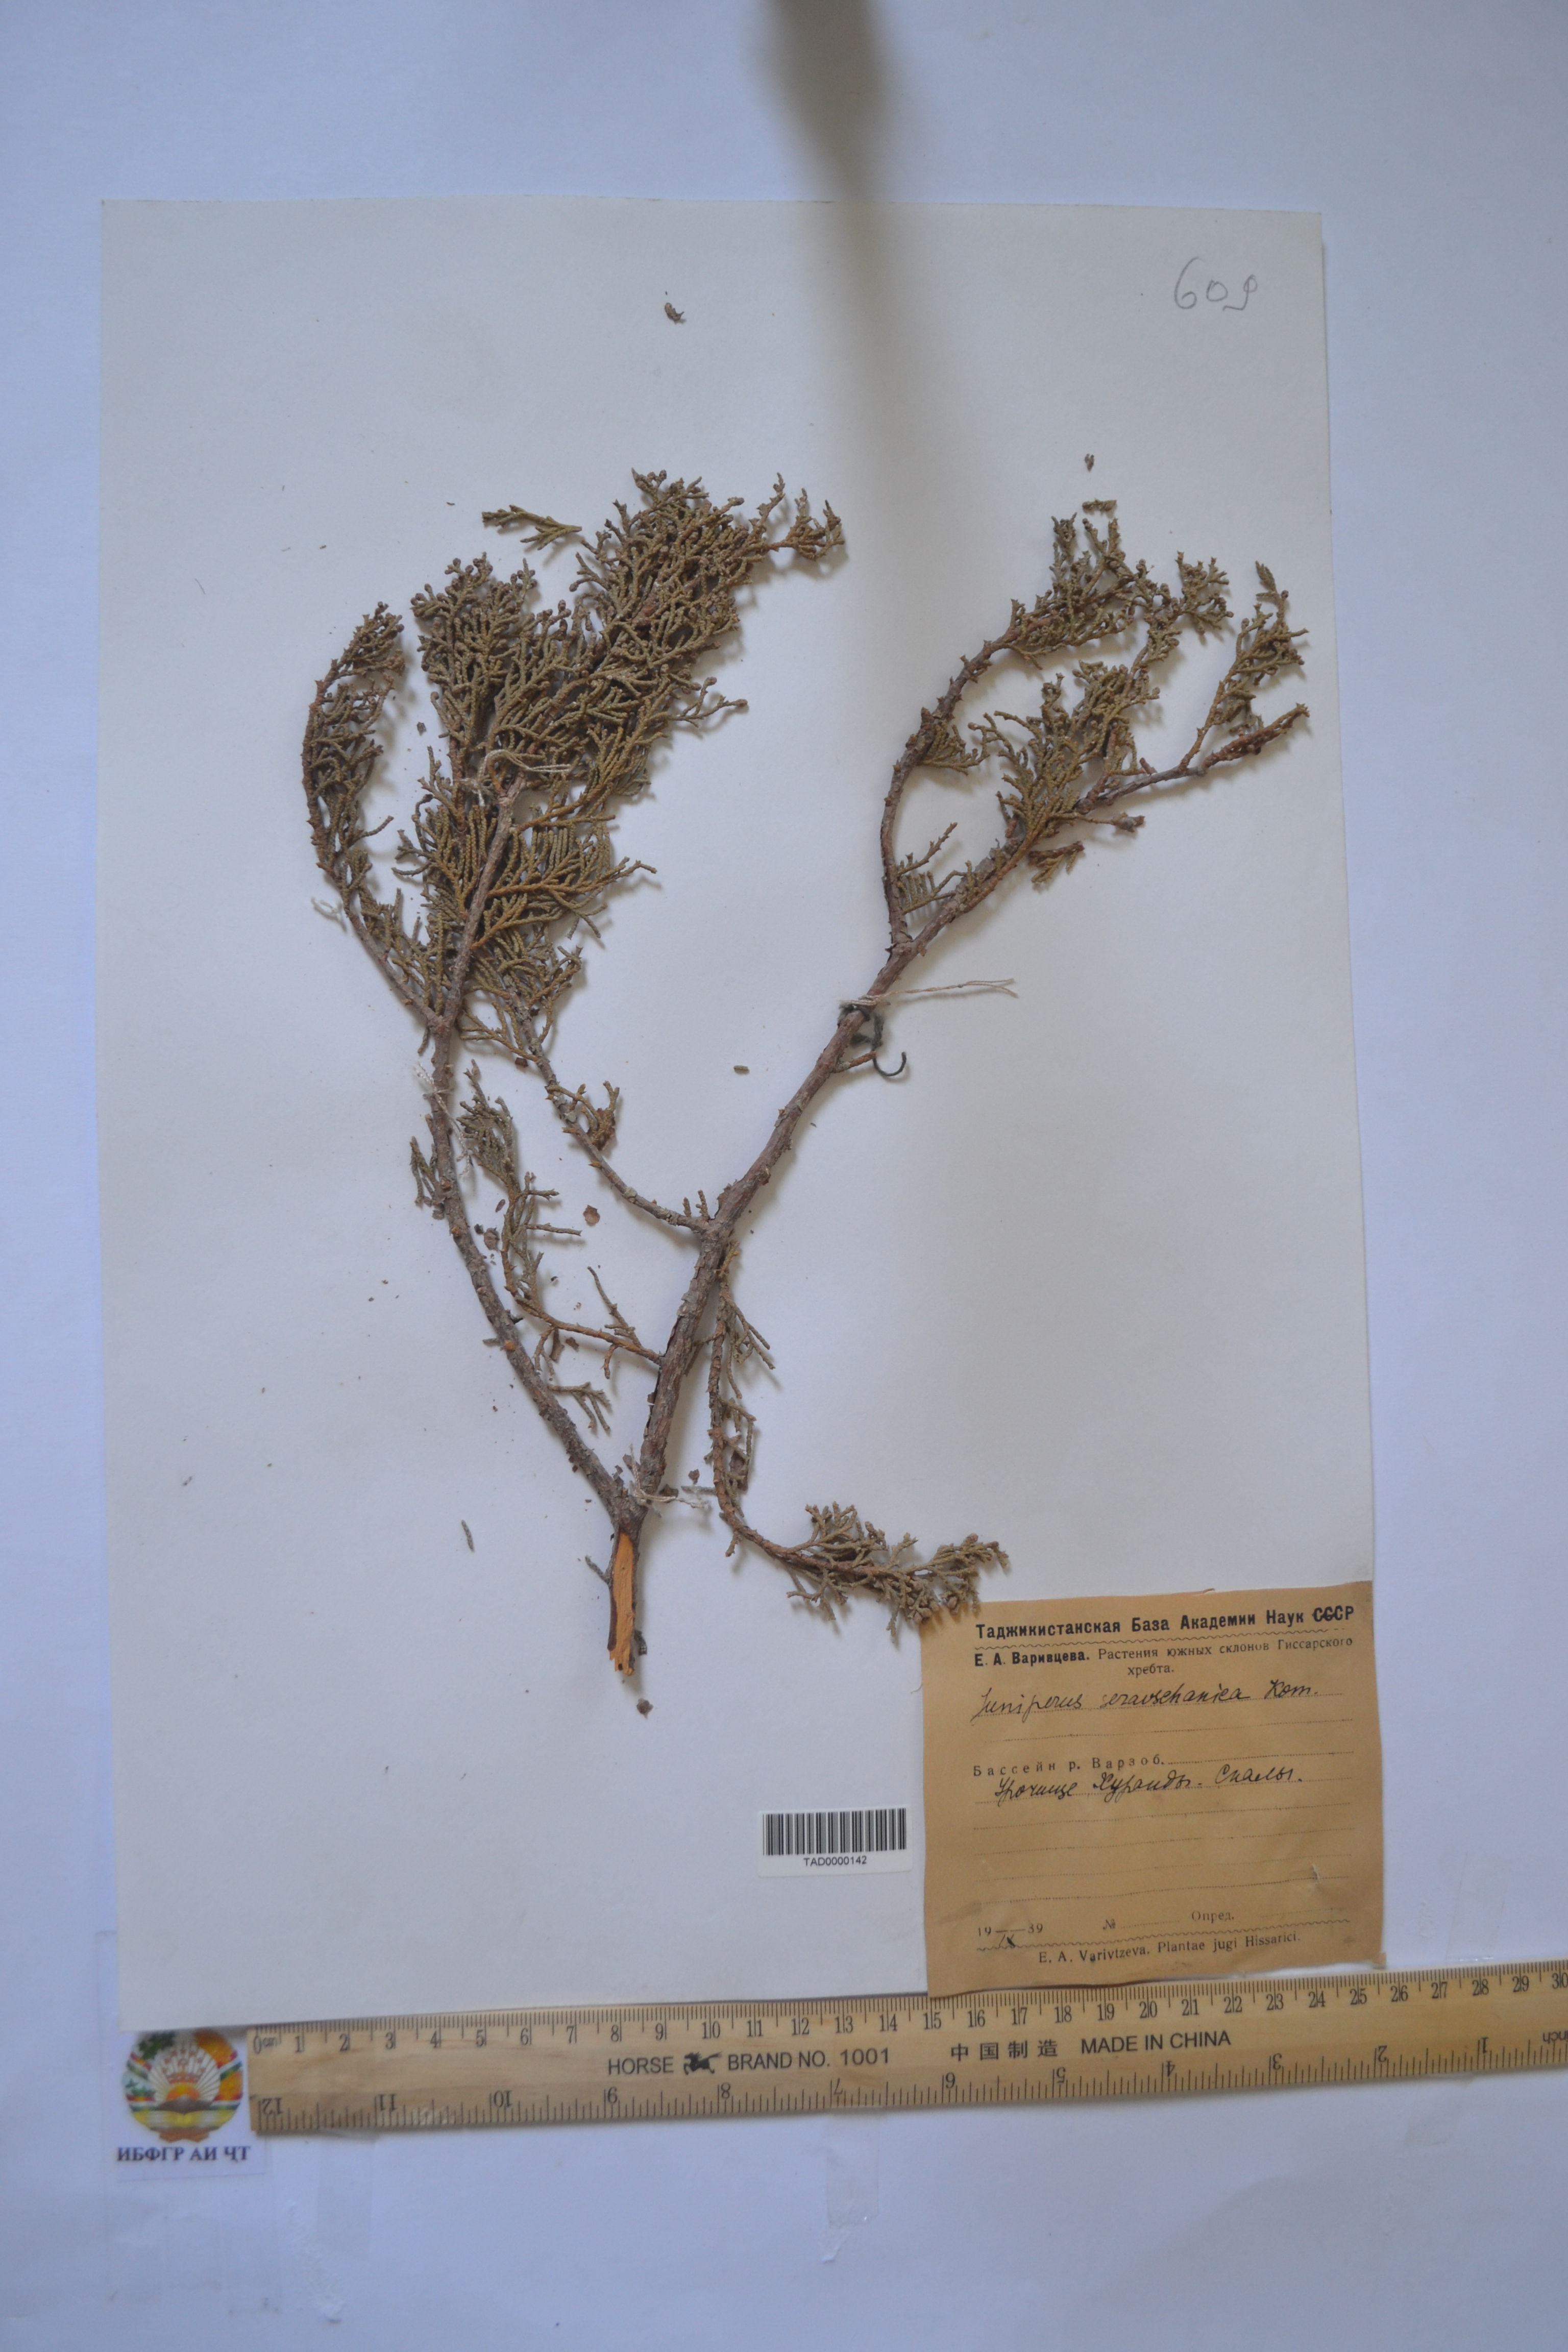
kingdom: Plantae
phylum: Tracheophyta
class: Pinopsida
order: Pinales
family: Cupressaceae
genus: Juniperus
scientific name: Juniperus excelsa
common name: Crimean juniper
